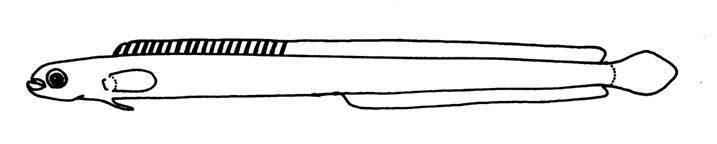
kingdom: Animalia
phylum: Chordata
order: Perciformes
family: Microdesmidae
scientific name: Microdesmidae
